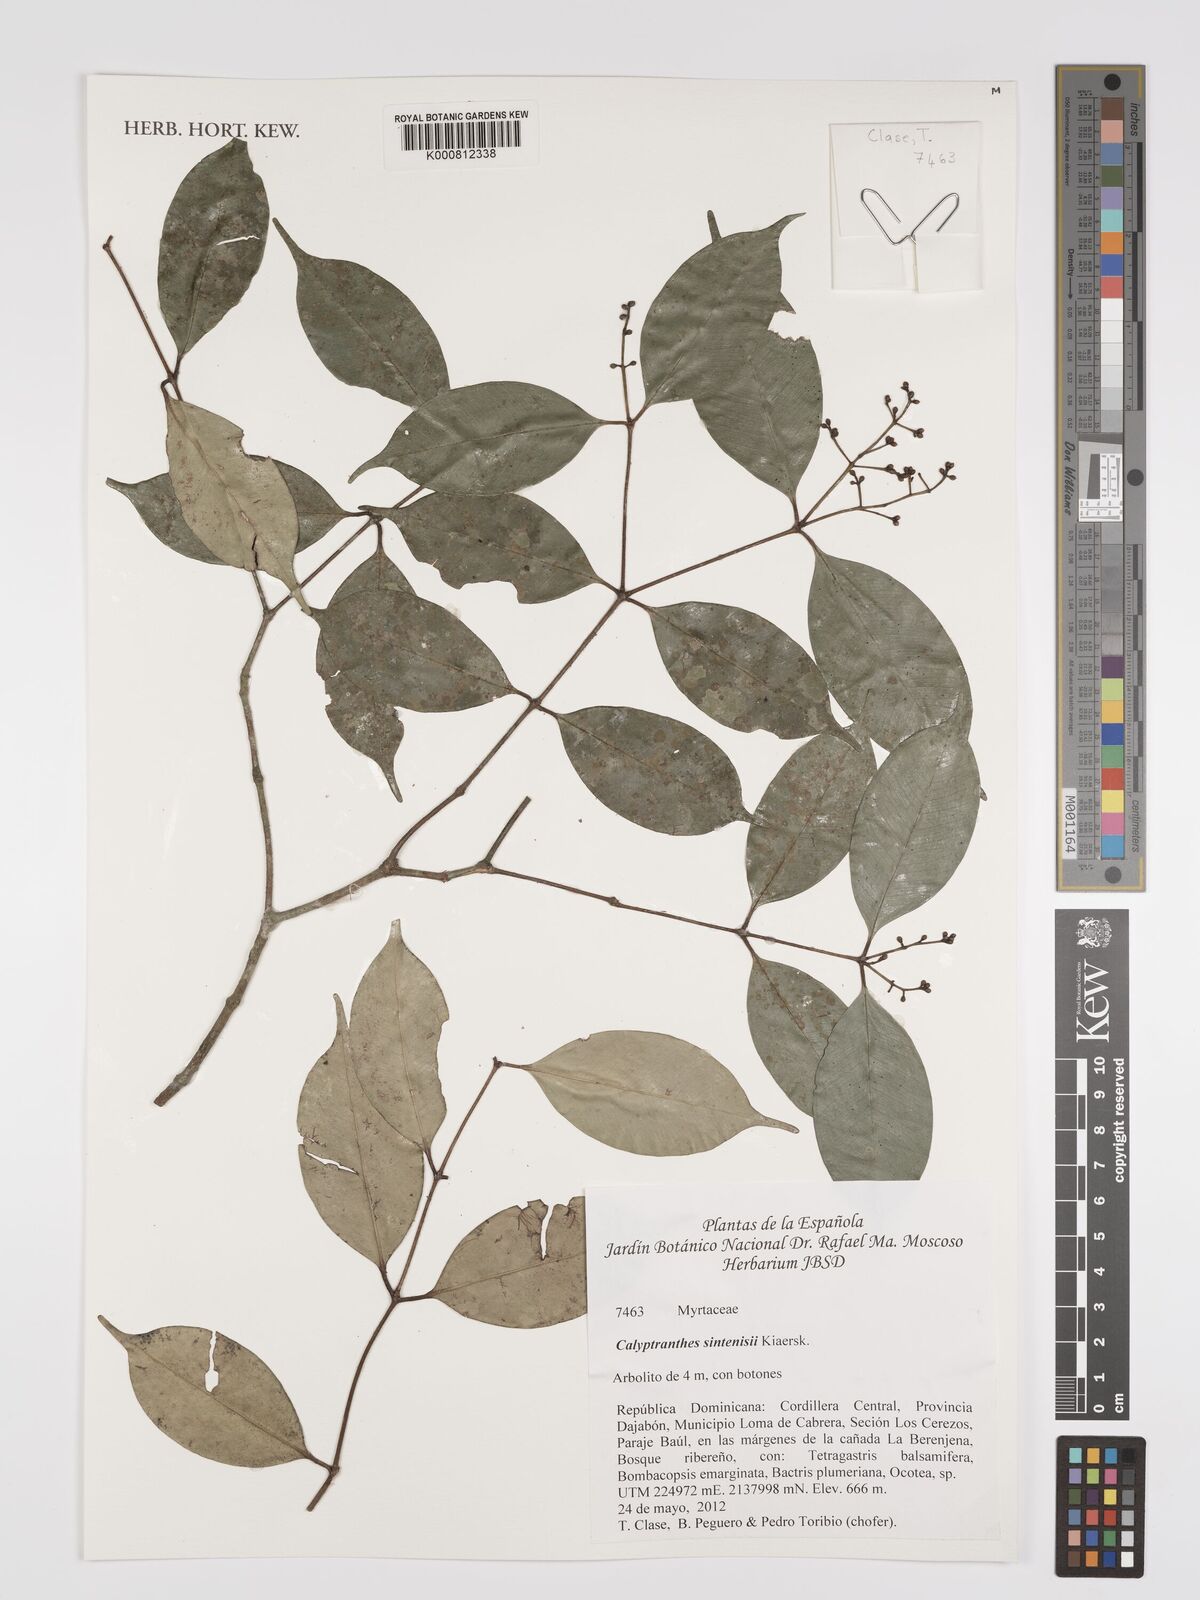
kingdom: Plantae
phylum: Tracheophyta
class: Magnoliopsida
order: Myrtales
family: Myrtaceae
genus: Myrcia
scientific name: Myrcia neosintenisii
